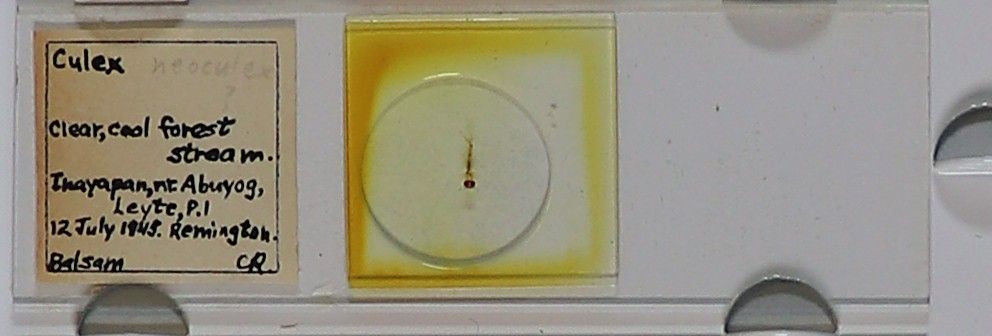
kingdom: Animalia
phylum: Arthropoda
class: Insecta
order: Diptera
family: Culicidae
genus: Culex
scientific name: Culex
